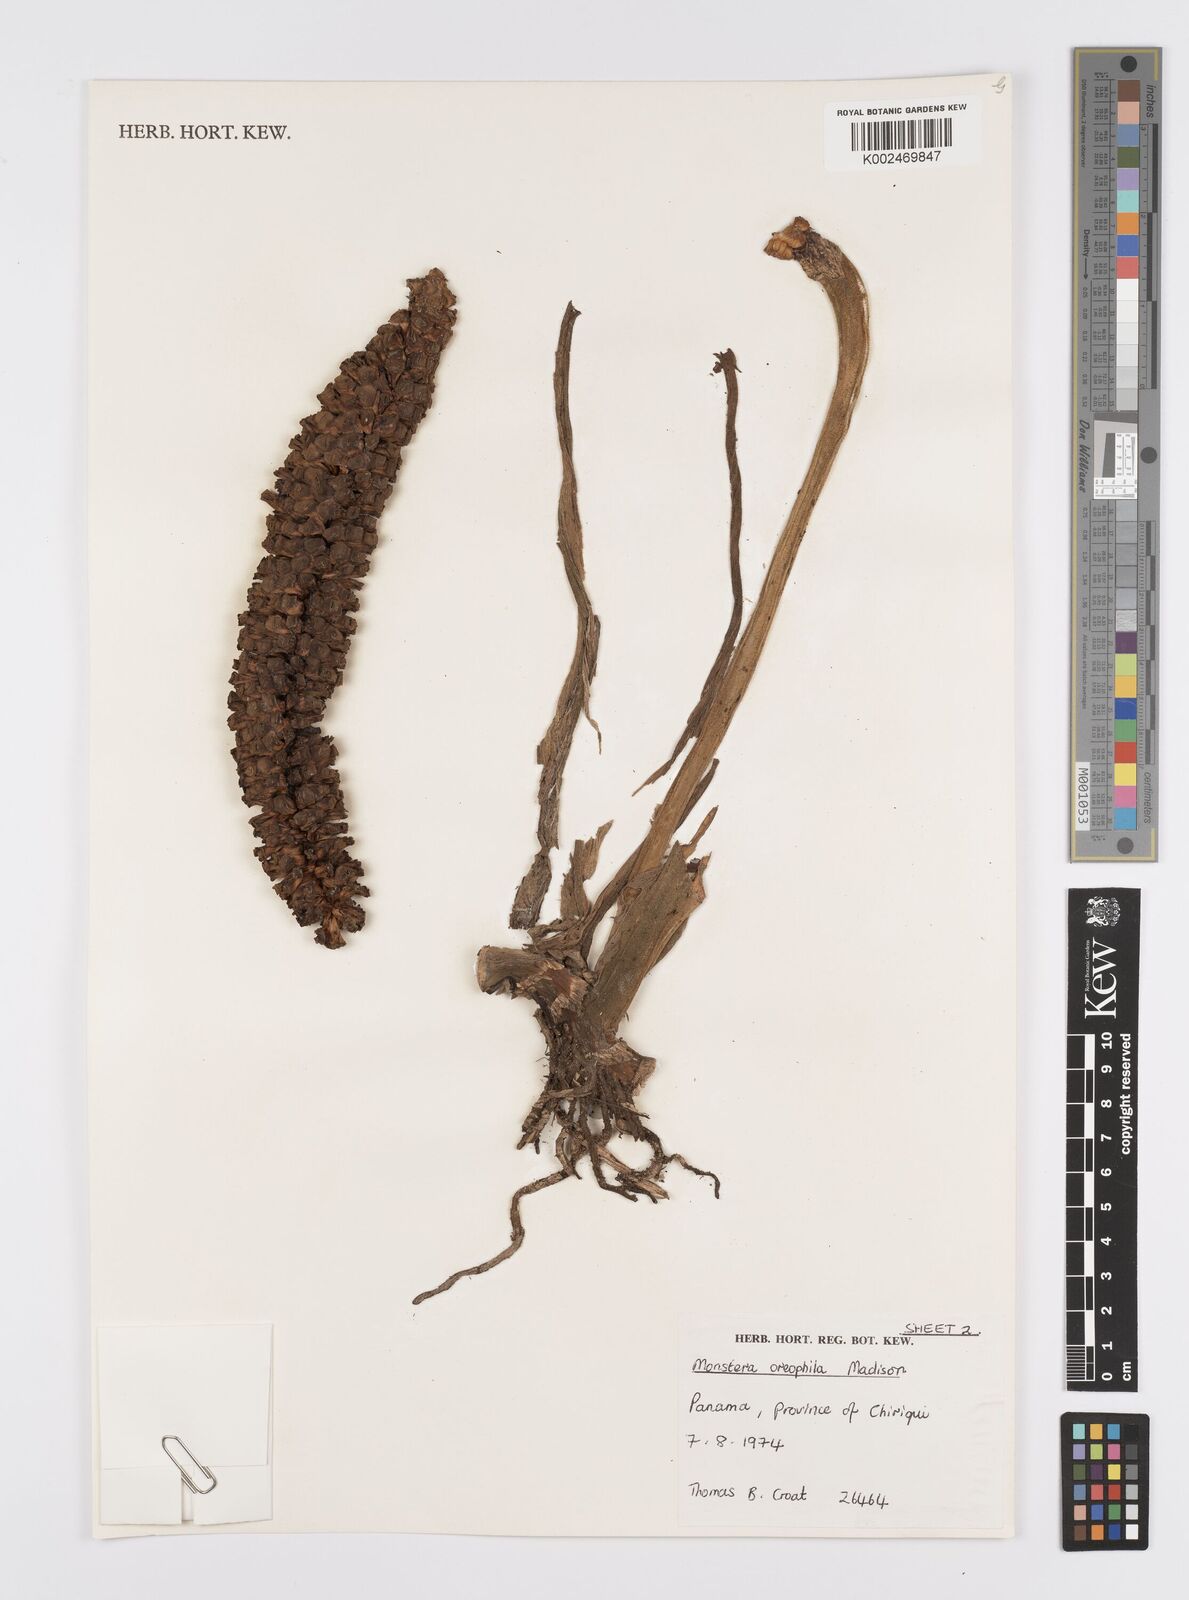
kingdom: Plantae
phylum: Tracheophyta
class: Liliopsida
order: Alismatales
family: Araceae
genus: Monstera
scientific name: Monstera oreophila
